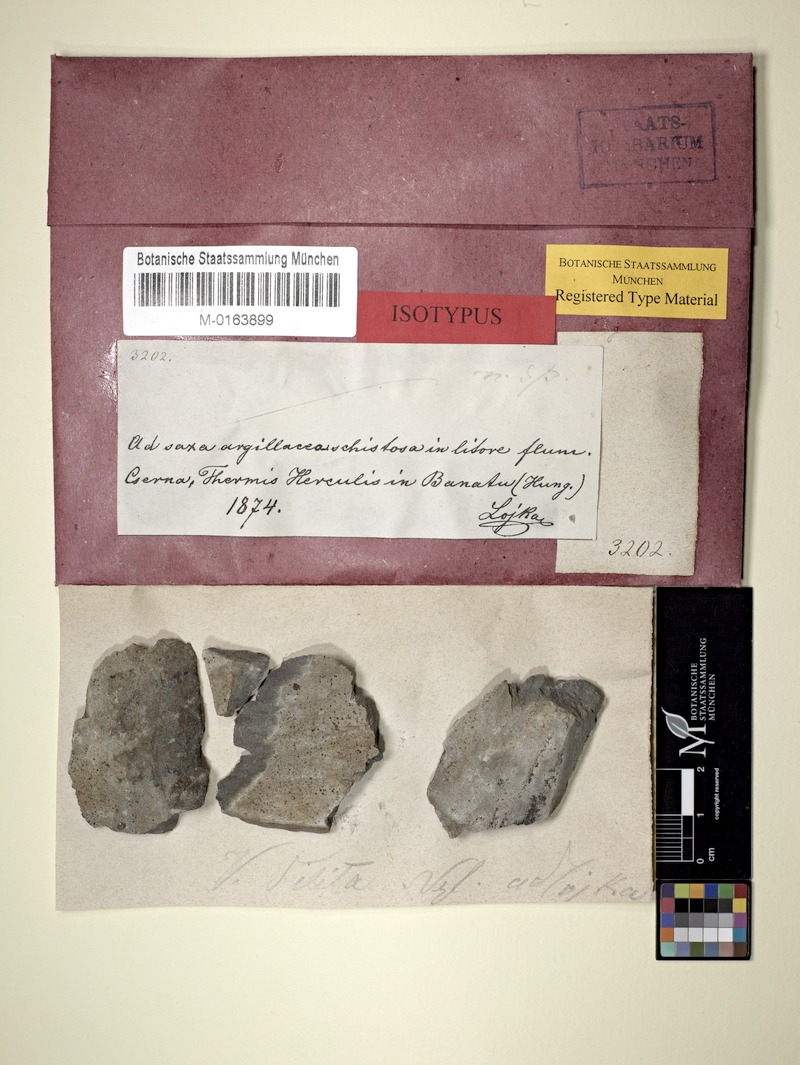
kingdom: Fungi
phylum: Ascomycota
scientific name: Ascomycota
